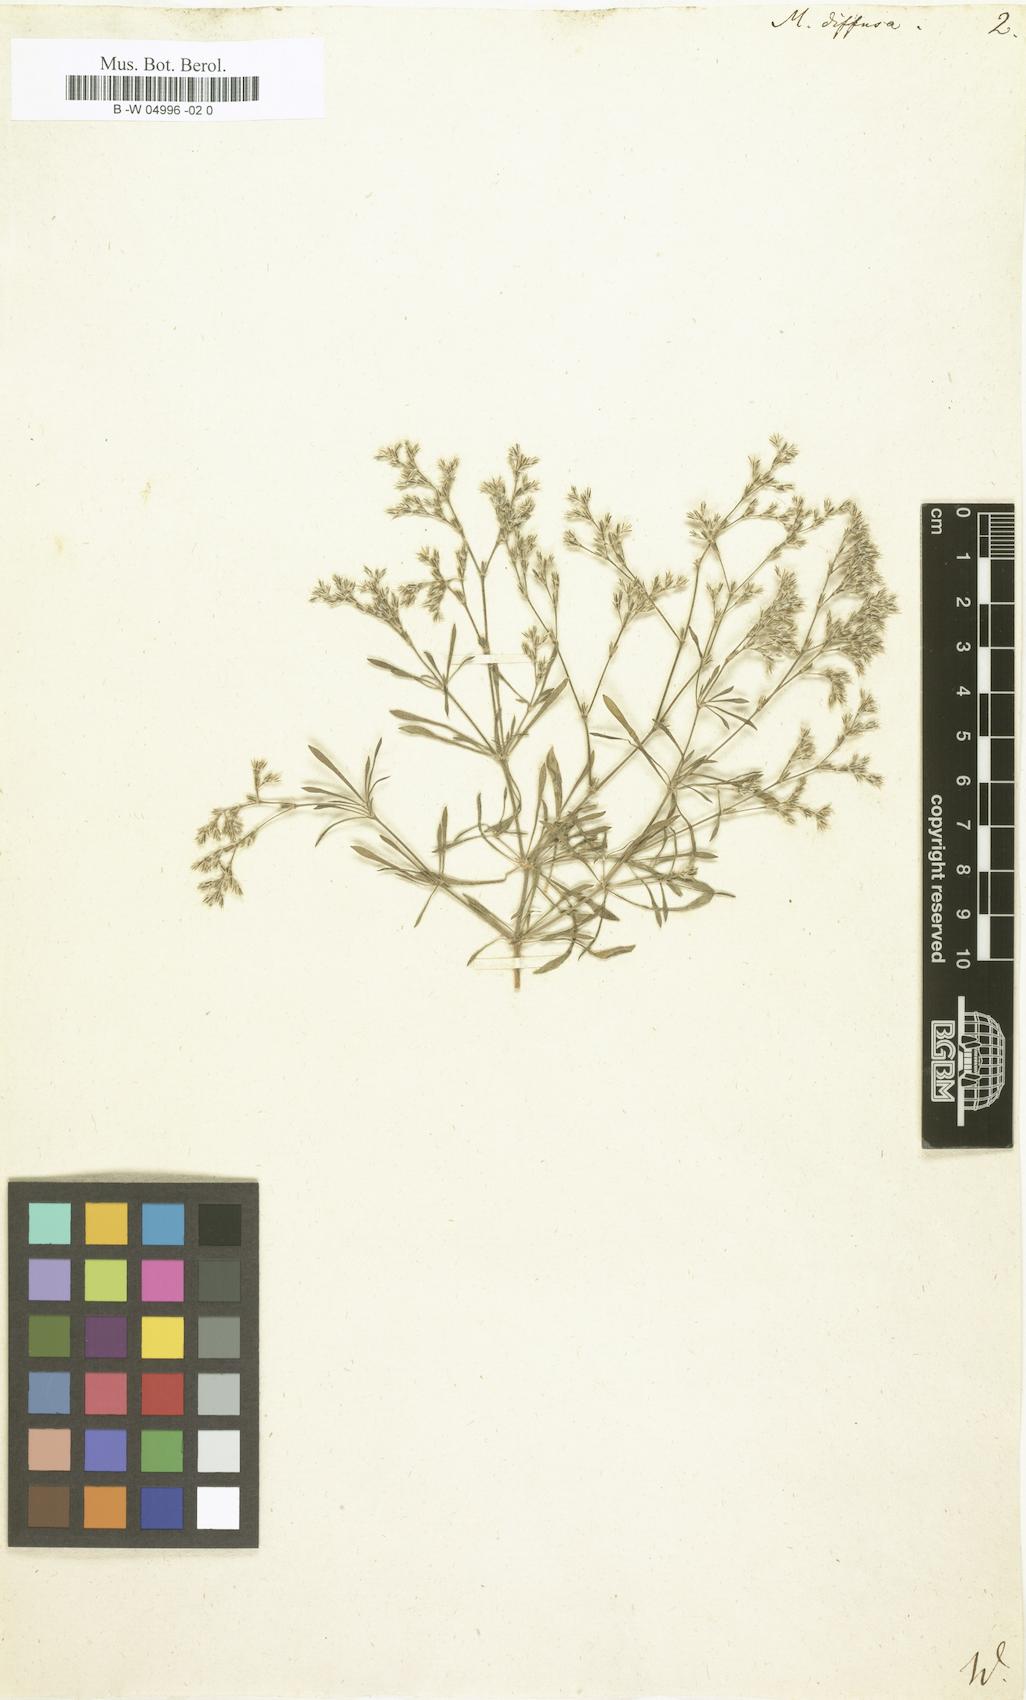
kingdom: Plantae
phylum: Tracheophyta
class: Magnoliopsida
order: Caryophyllales
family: Caryophyllaceae
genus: Polycarpaea
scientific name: Polycarpaea divaricata
